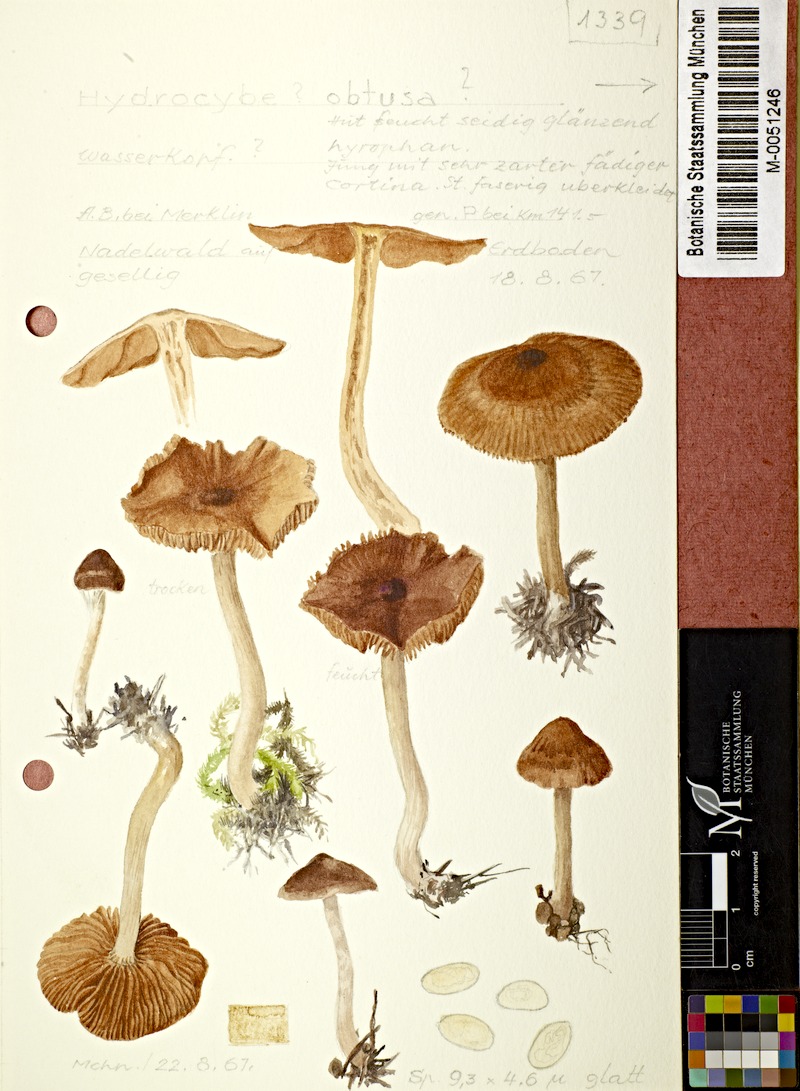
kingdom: Fungi
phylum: Basidiomycota
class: Agaricomycetes
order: Agaricales
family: Cortinariaceae
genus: Cortinarius
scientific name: Cortinarius obtusus
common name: Blunt webcap
